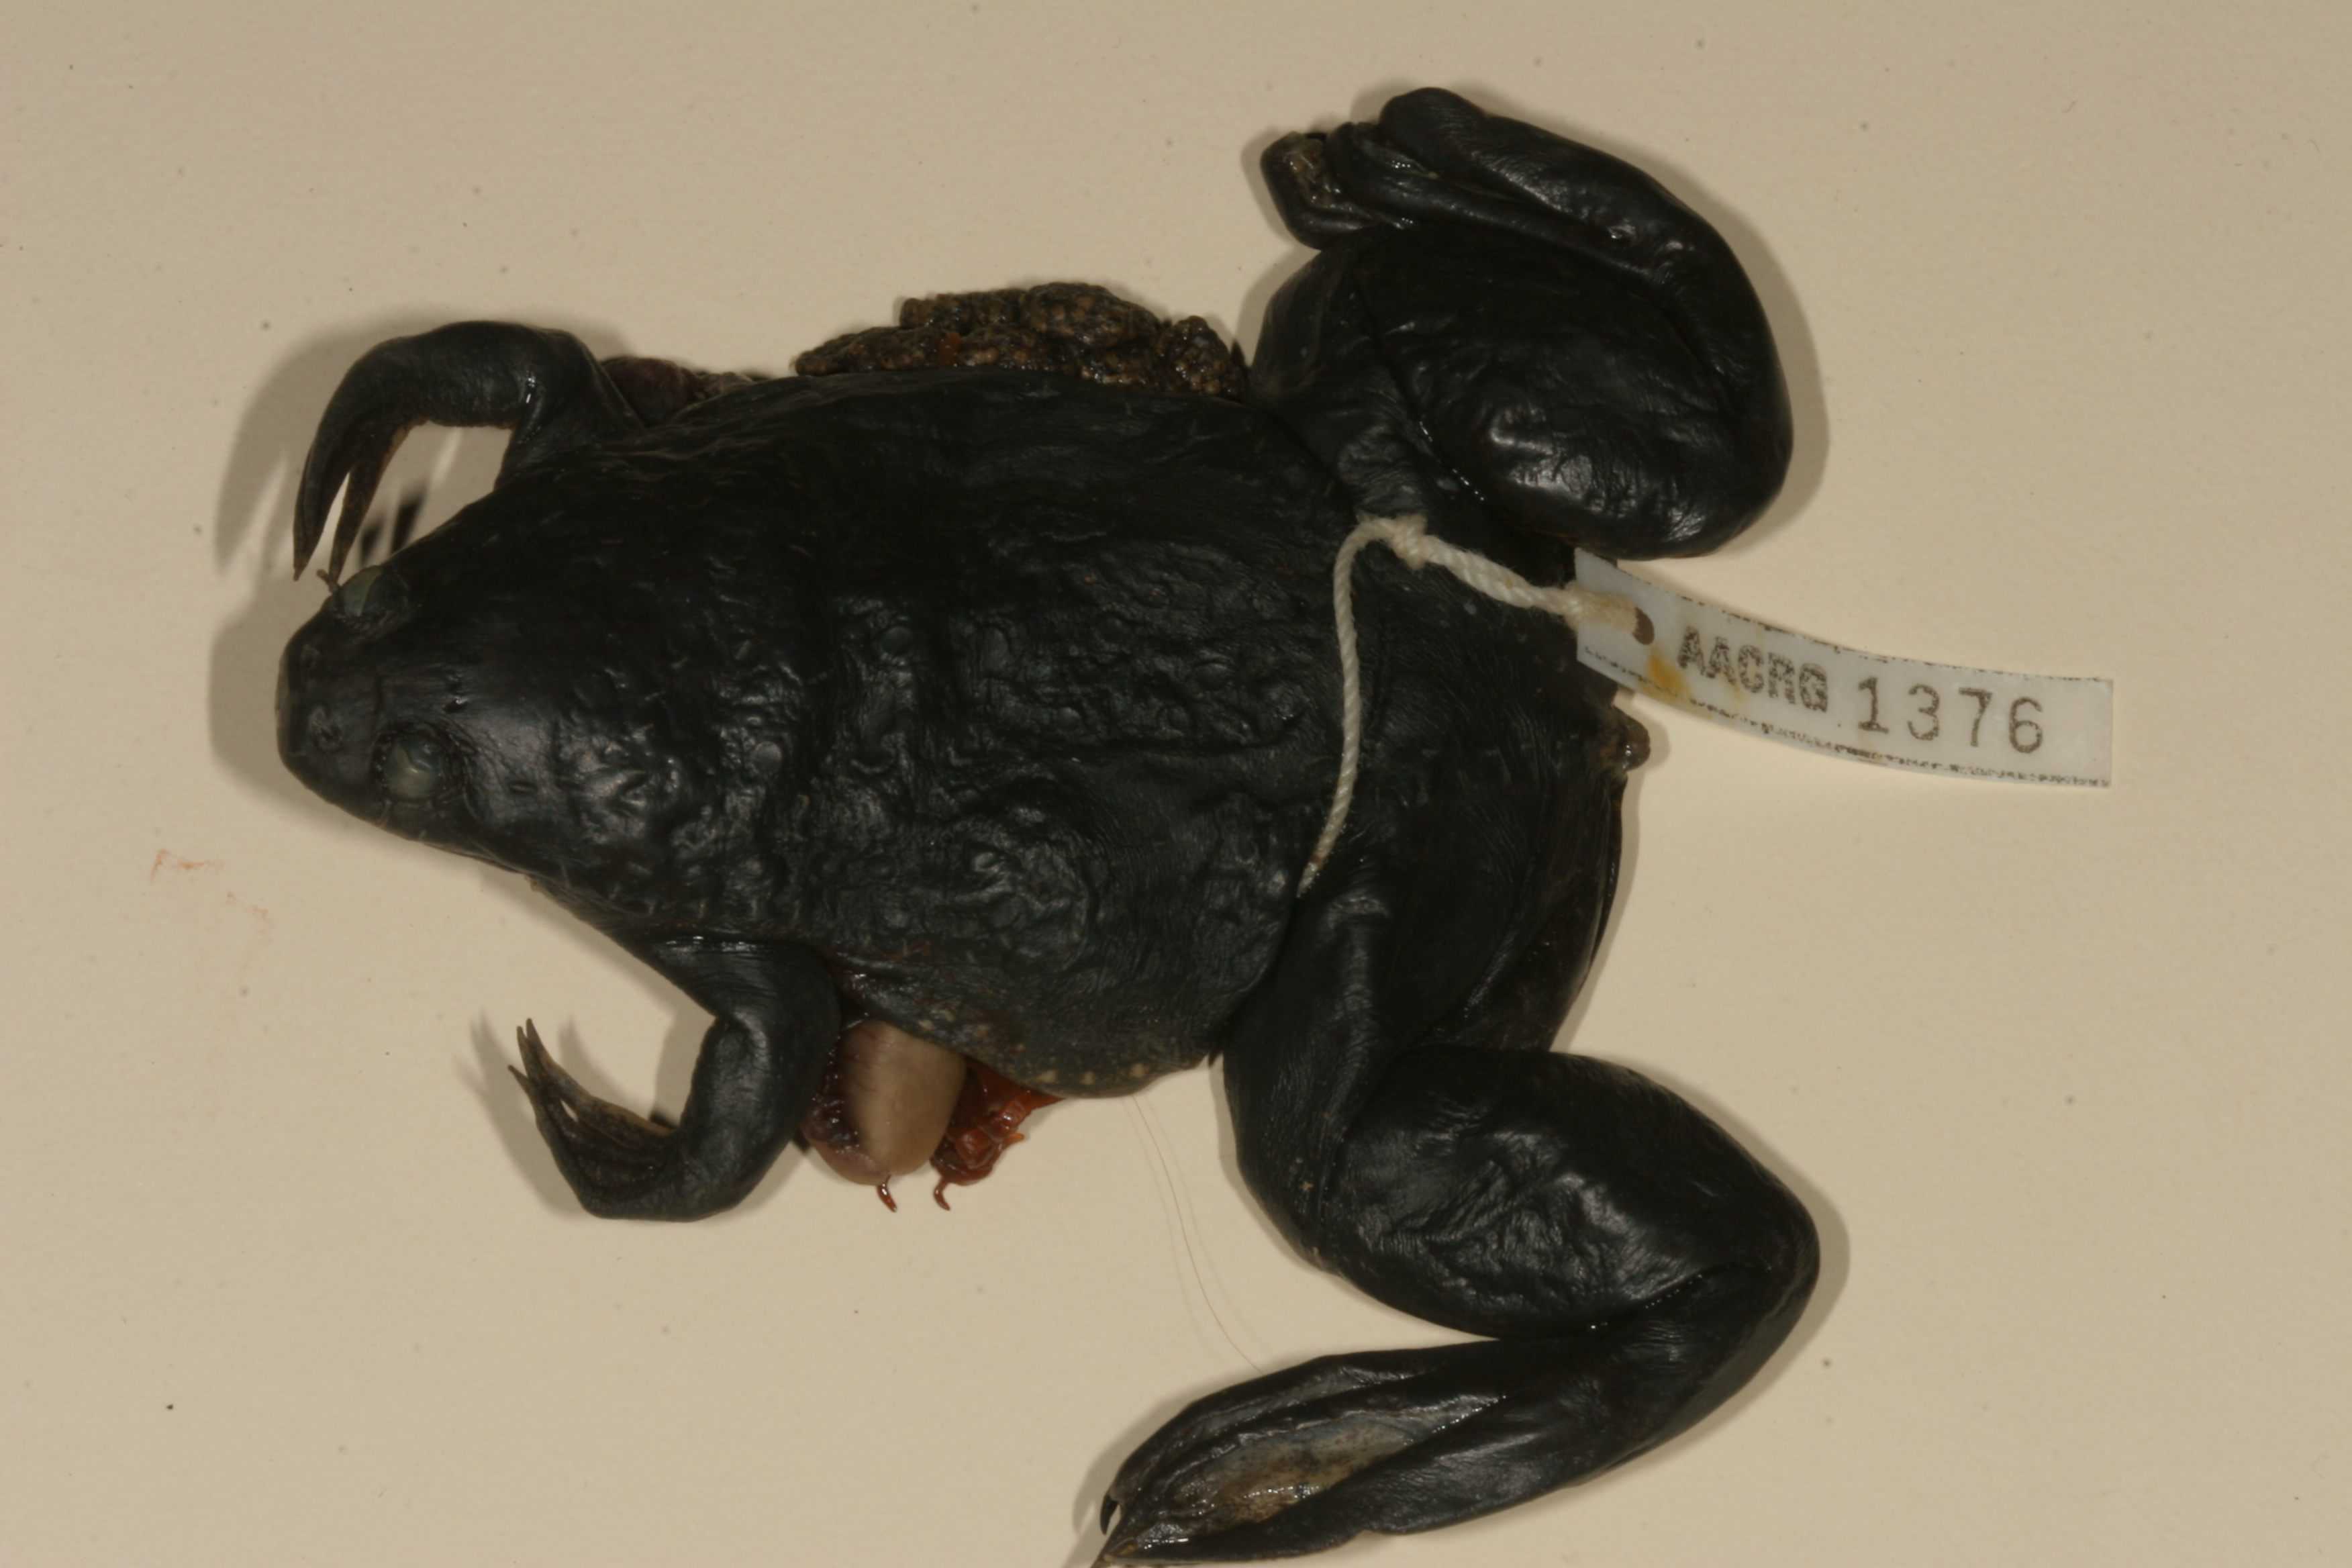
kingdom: Animalia
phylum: Chordata
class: Amphibia
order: Anura
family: Pipidae
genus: Xenopus
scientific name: Xenopus muelleri
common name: Muller's clawed frog
